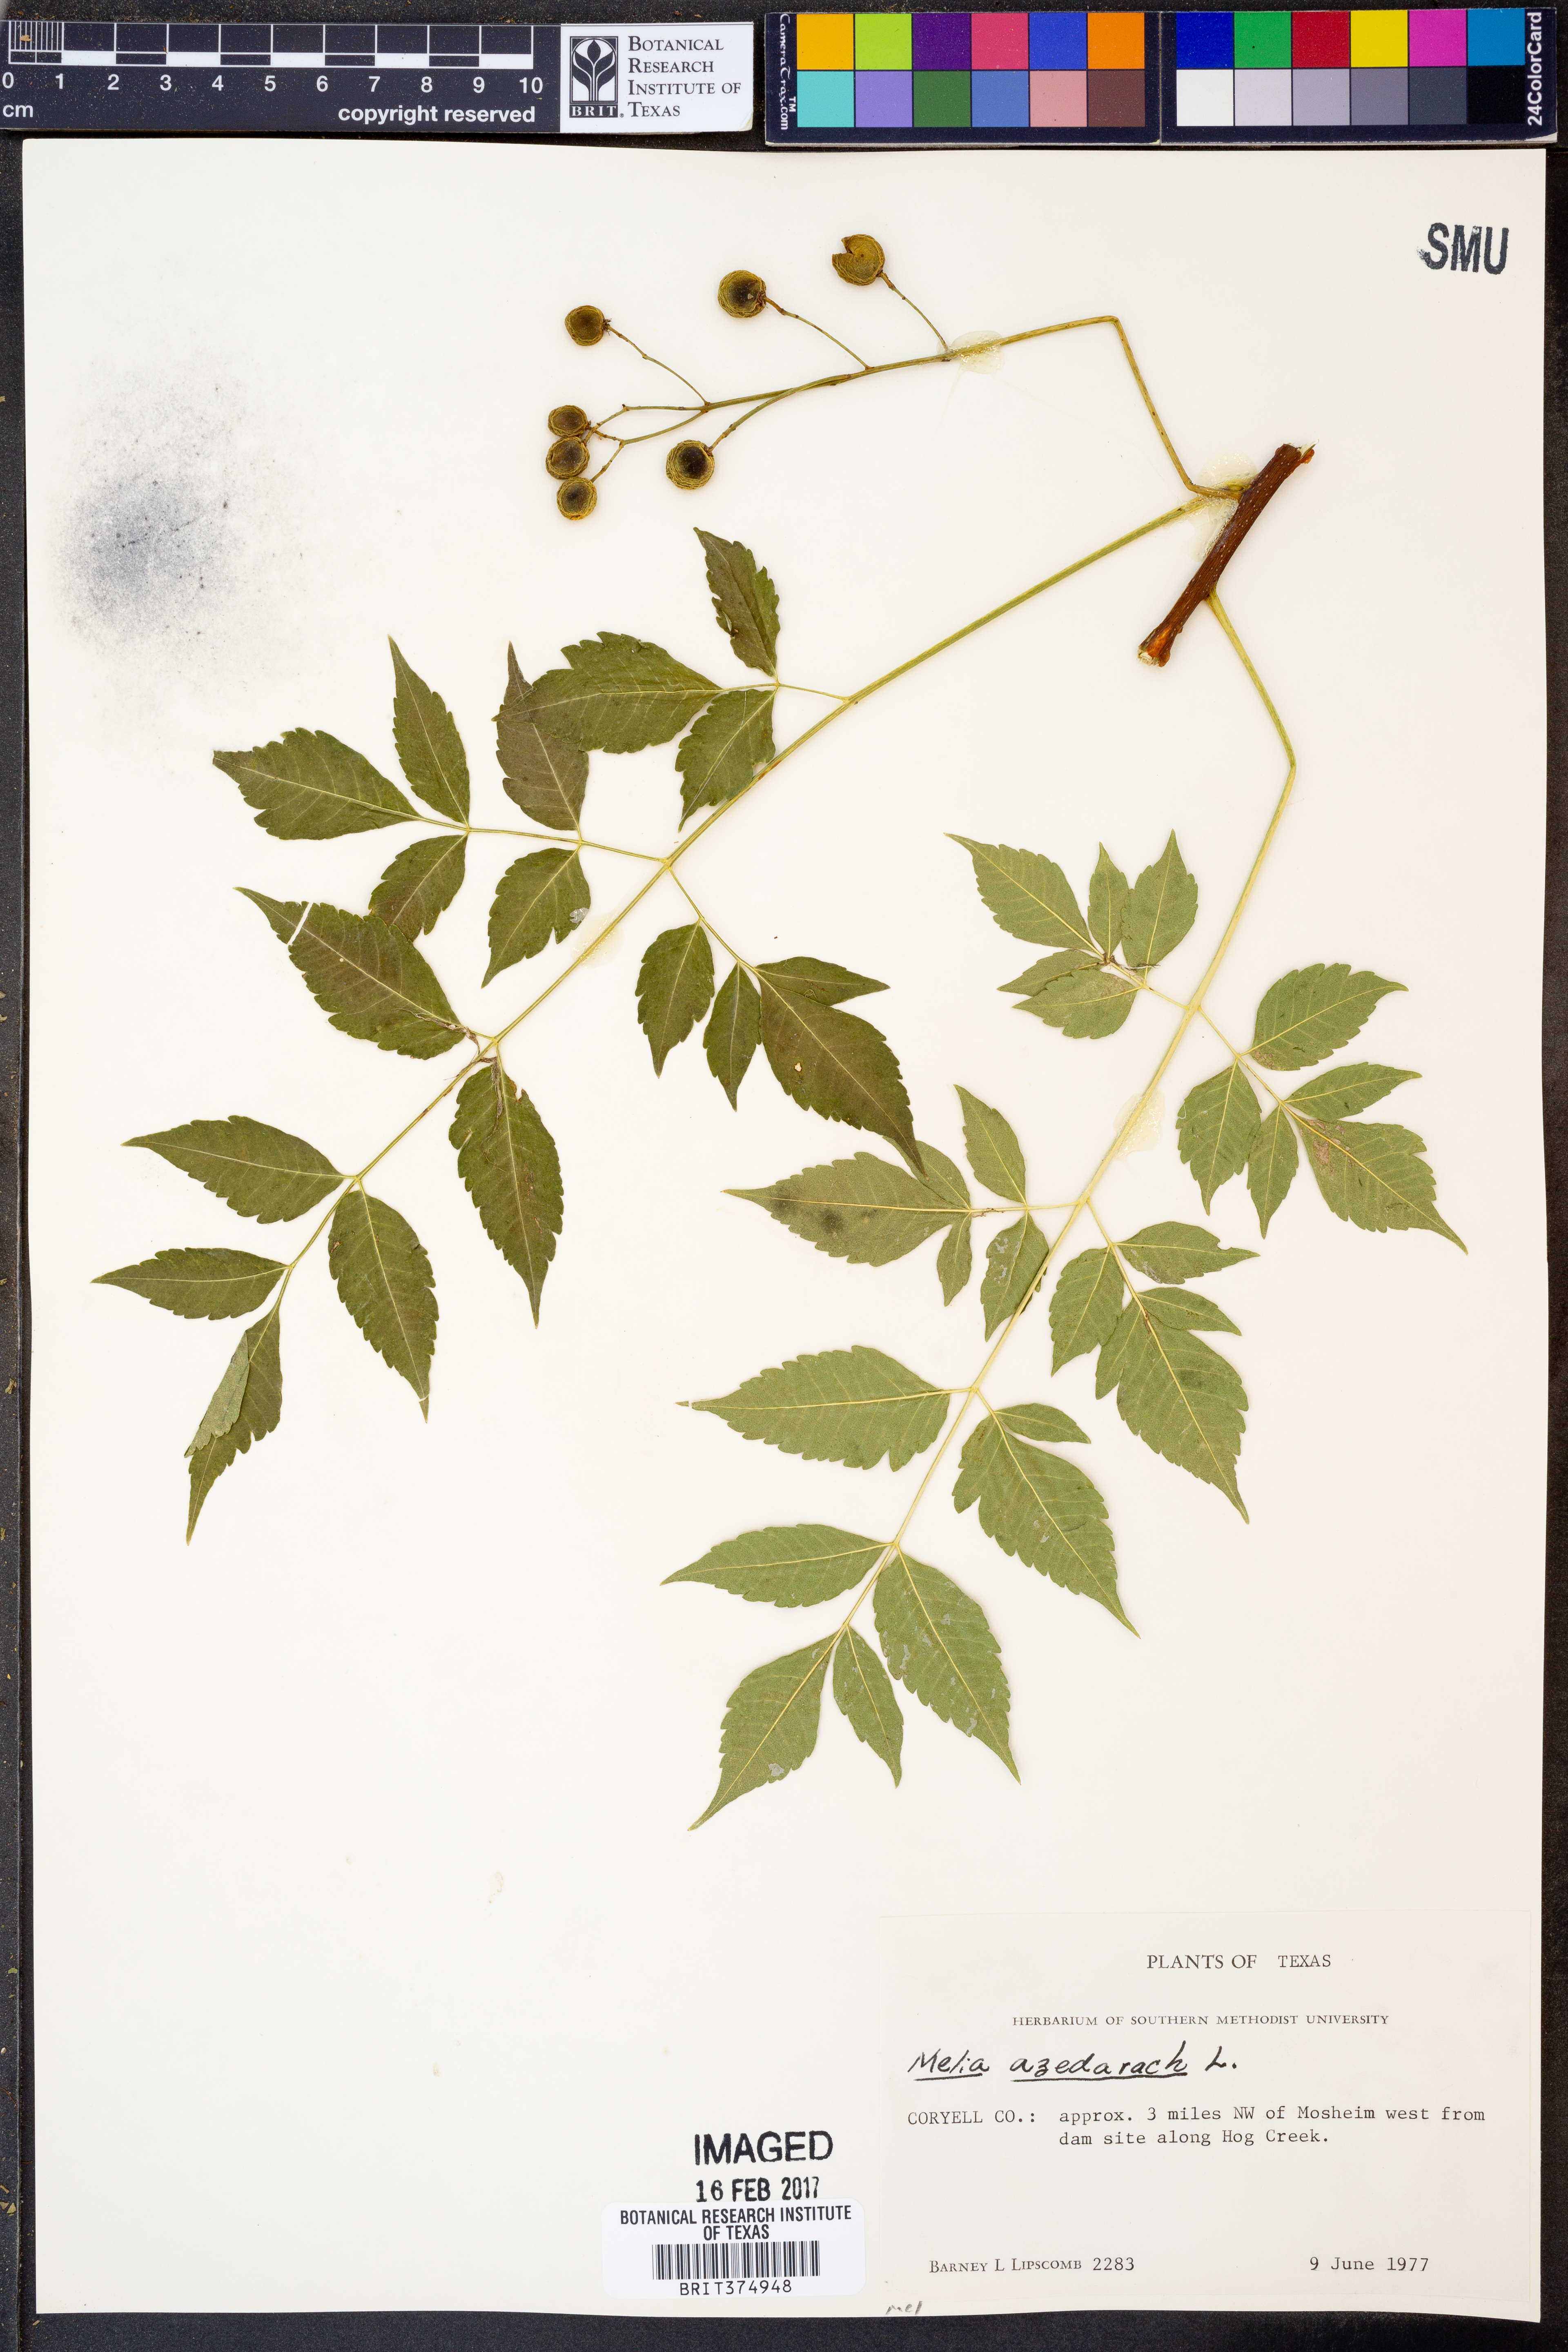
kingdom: Plantae
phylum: Tracheophyta
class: Magnoliopsida
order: Sapindales
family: Meliaceae
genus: Melia
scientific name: Melia azedarach
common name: Chinaberrytree
